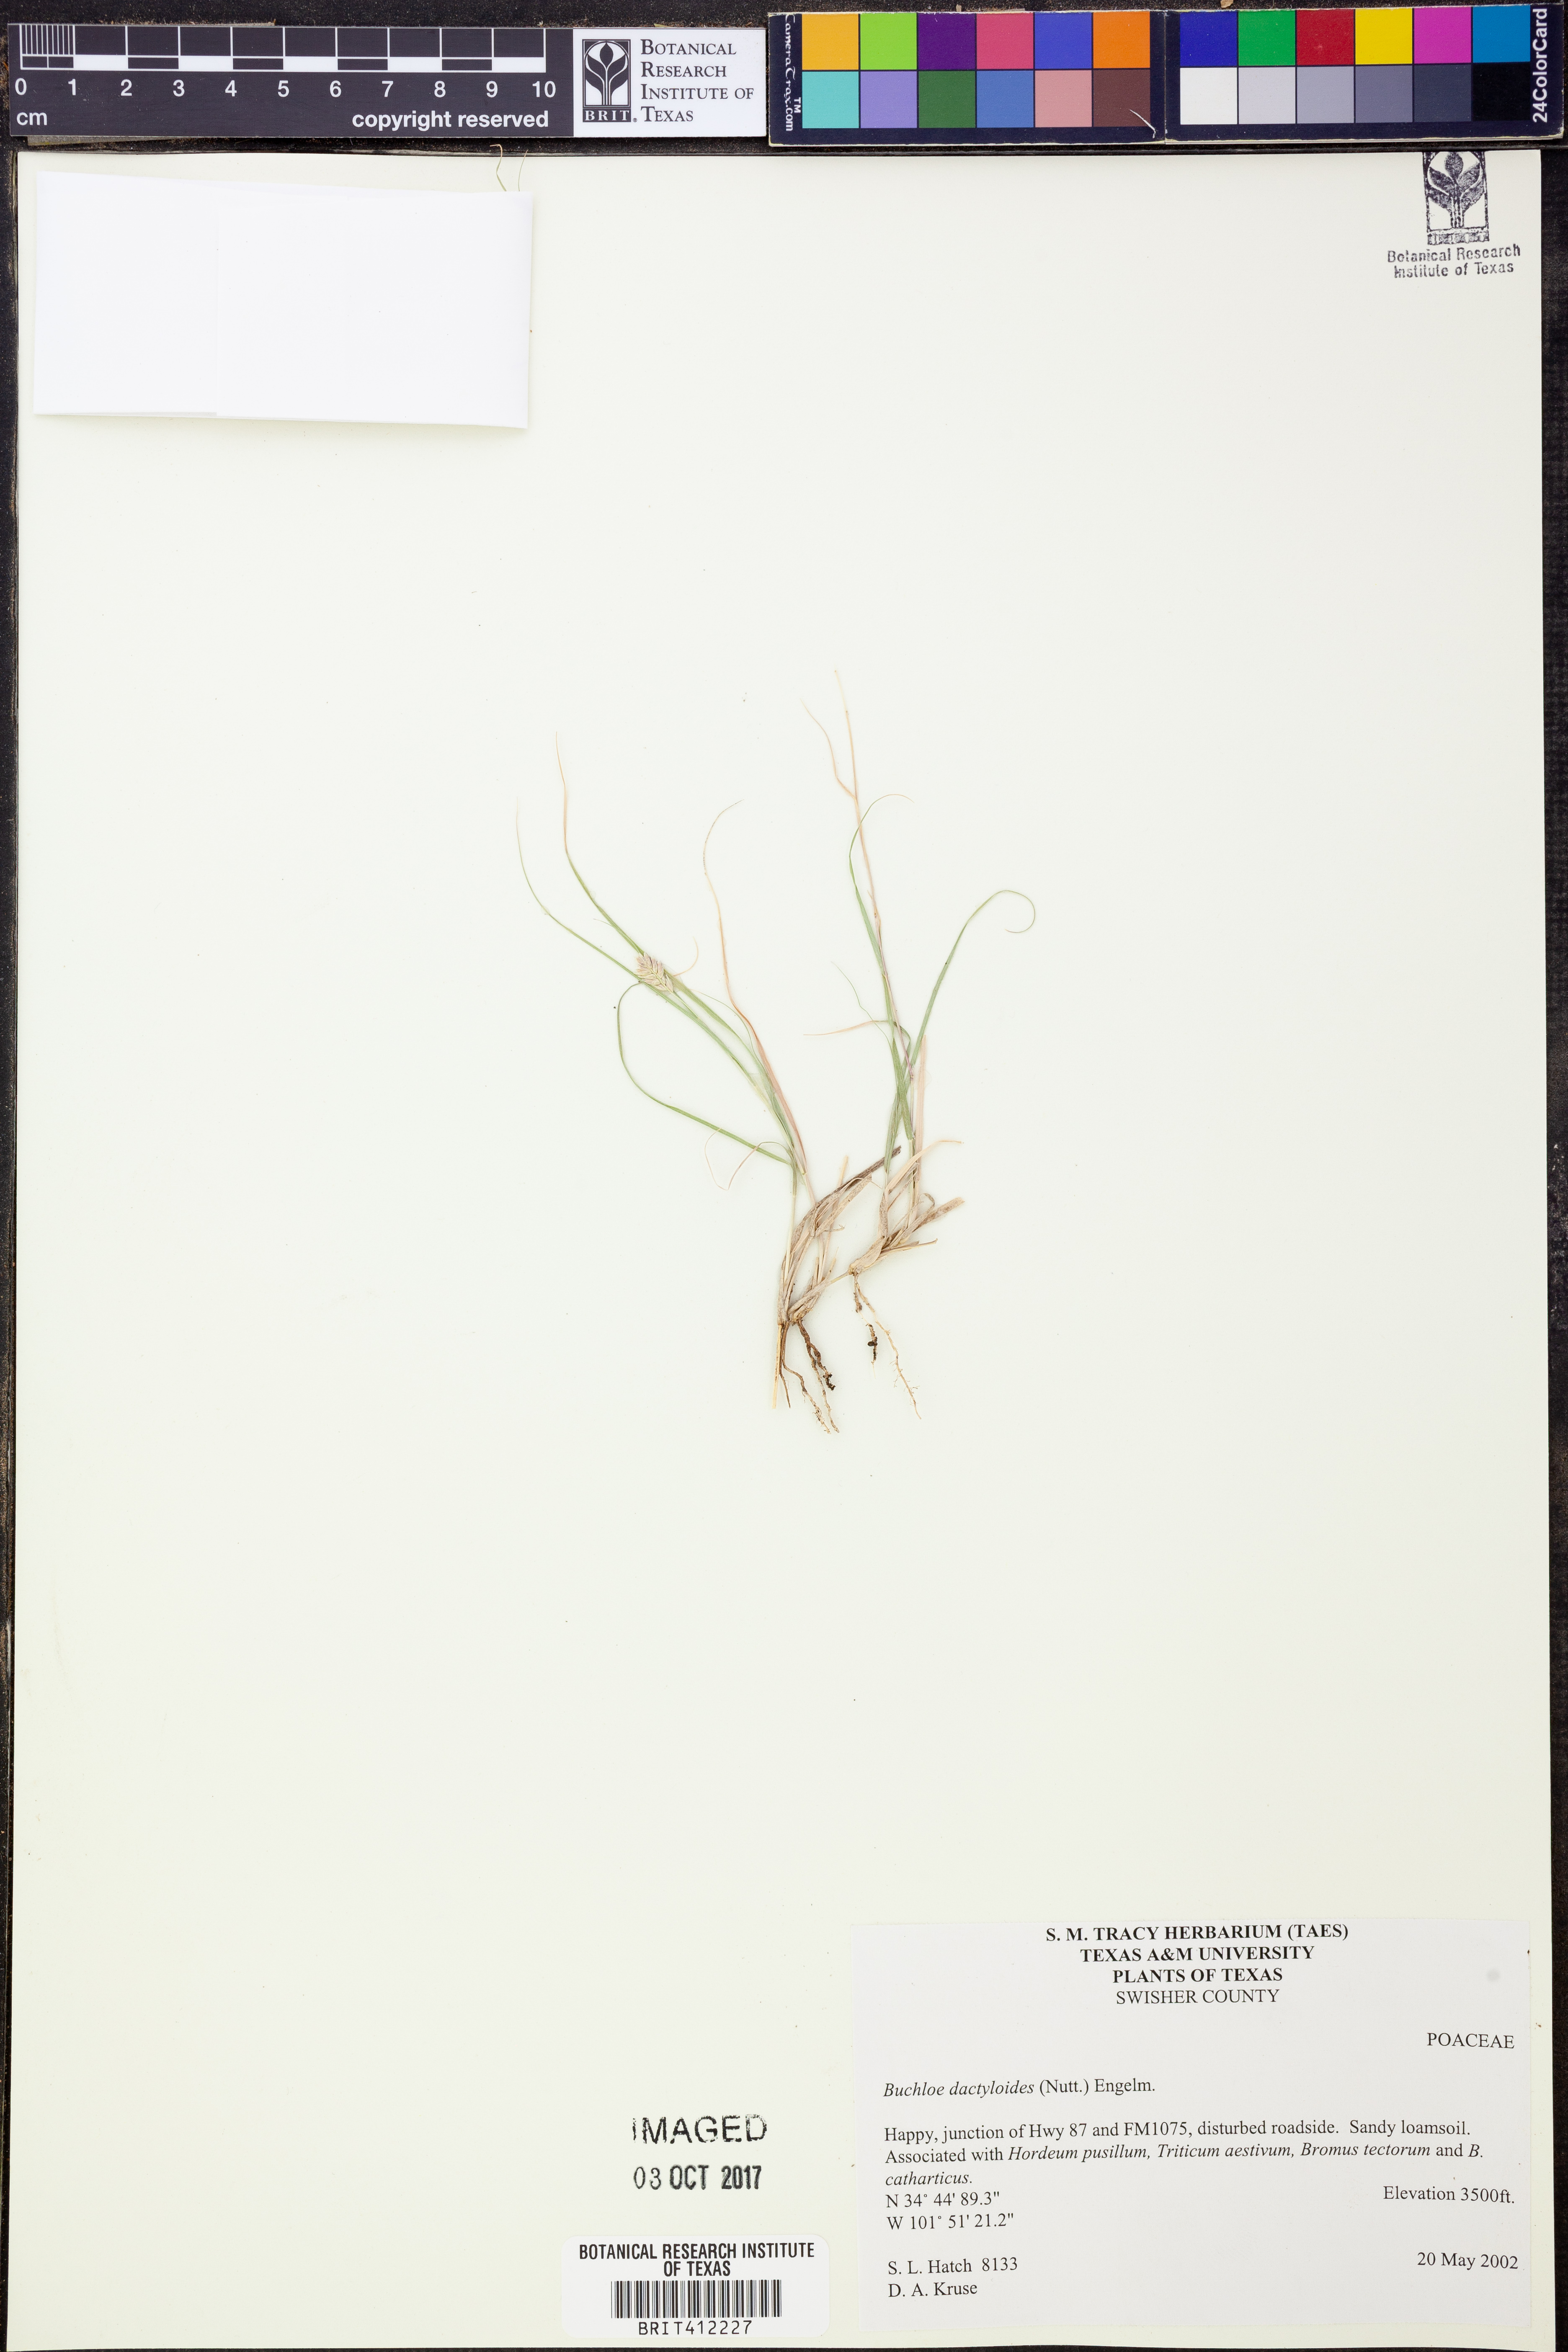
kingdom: Plantae
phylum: Tracheophyta
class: Liliopsida
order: Poales
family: Poaceae
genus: Bouteloua
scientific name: Bouteloua dactyloides
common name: Buffalo grass
